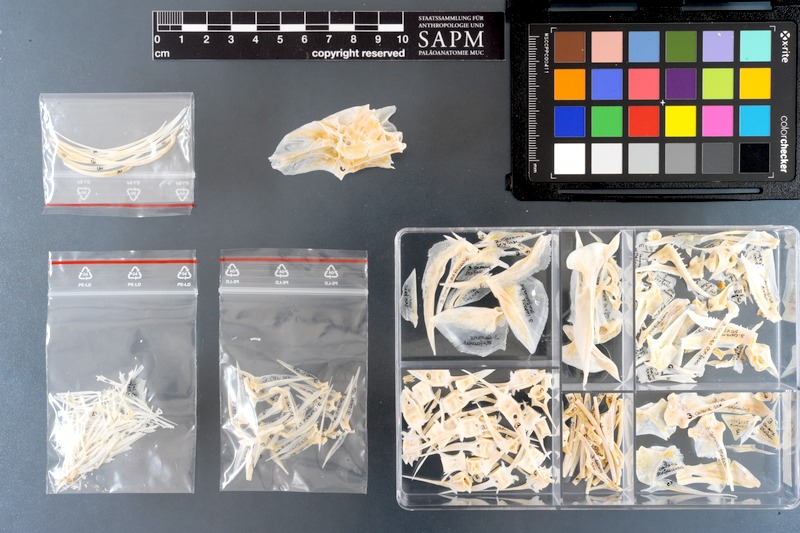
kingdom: Animalia
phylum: Chordata
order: Perciformes
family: Carangidae
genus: Caranx
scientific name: Caranx sexfasciatus
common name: Bigeye trevally
